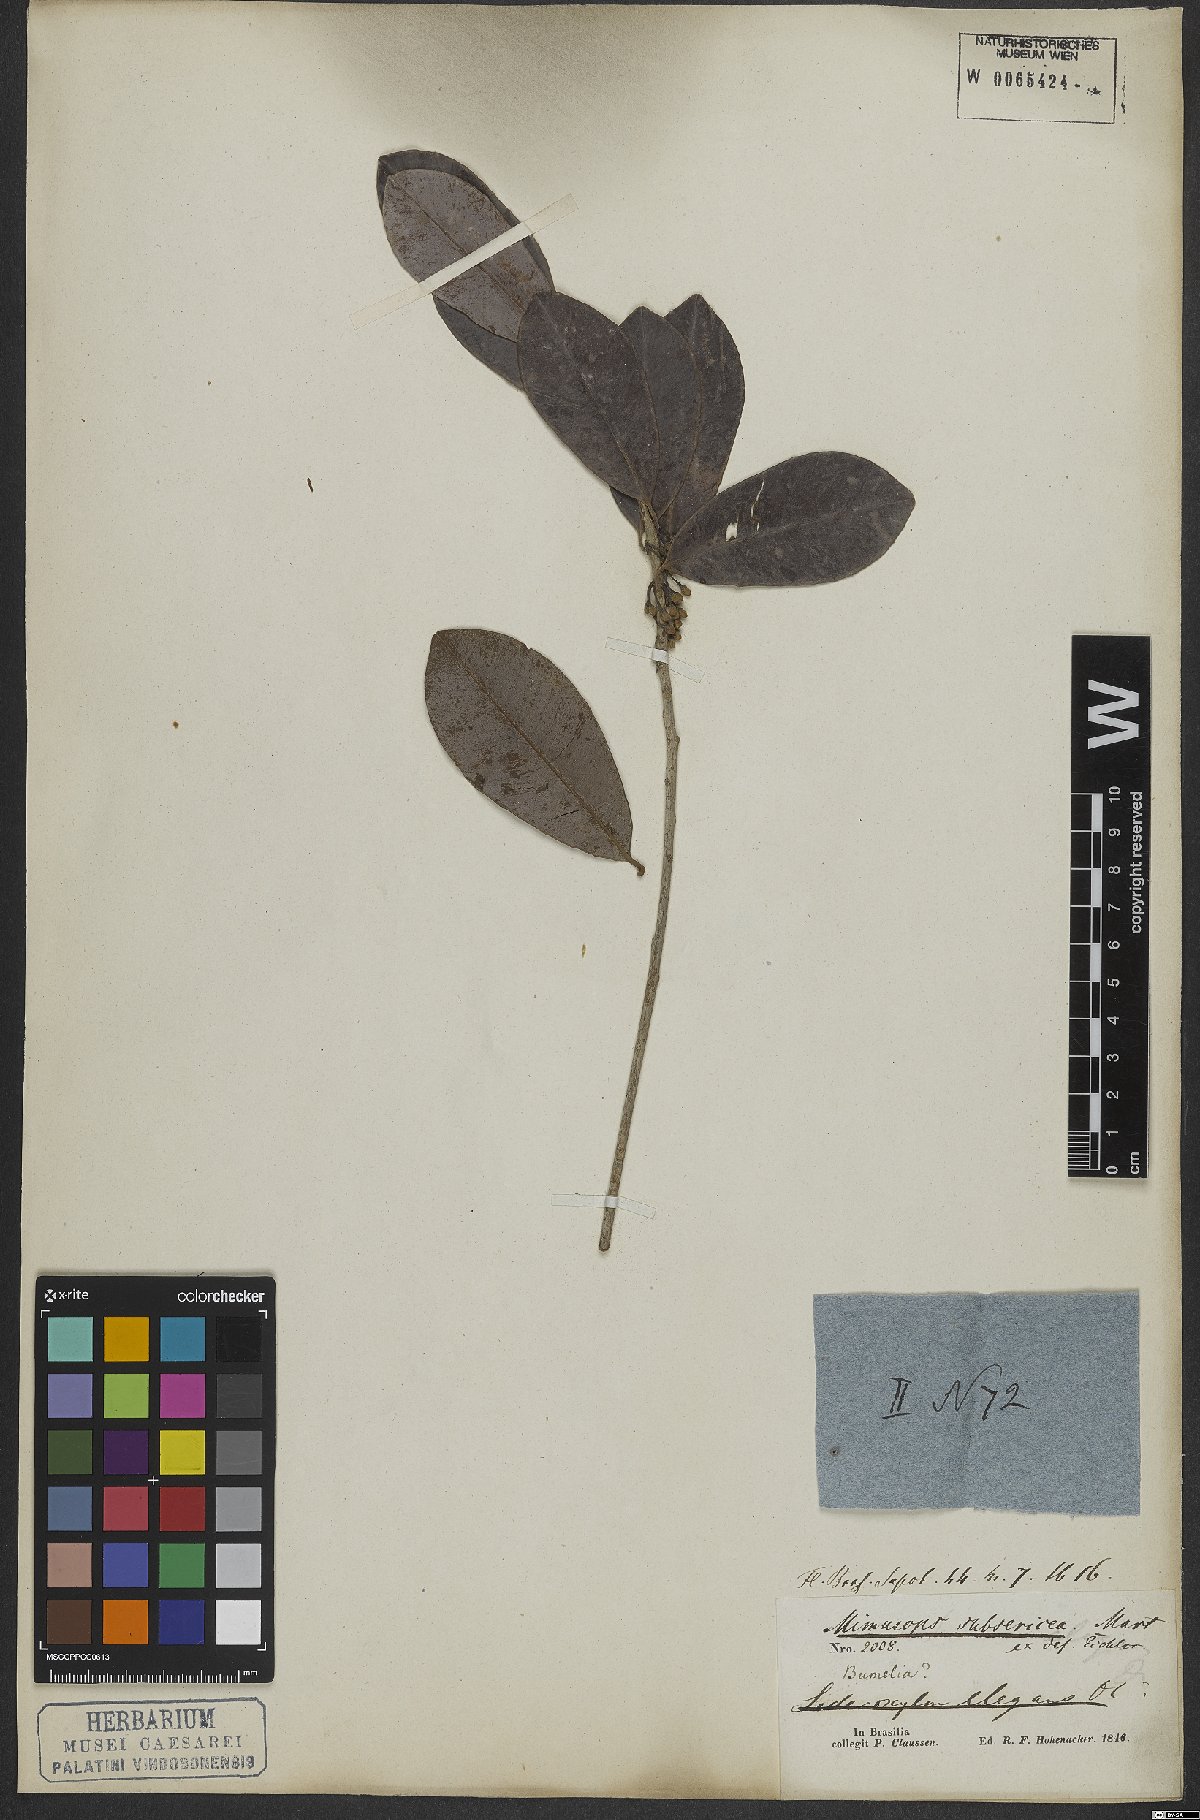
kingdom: Plantae
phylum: Tracheophyta
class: Magnoliopsida
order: Ericales
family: Sapotaceae
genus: Manilkara
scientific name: Manilkara subsericea
